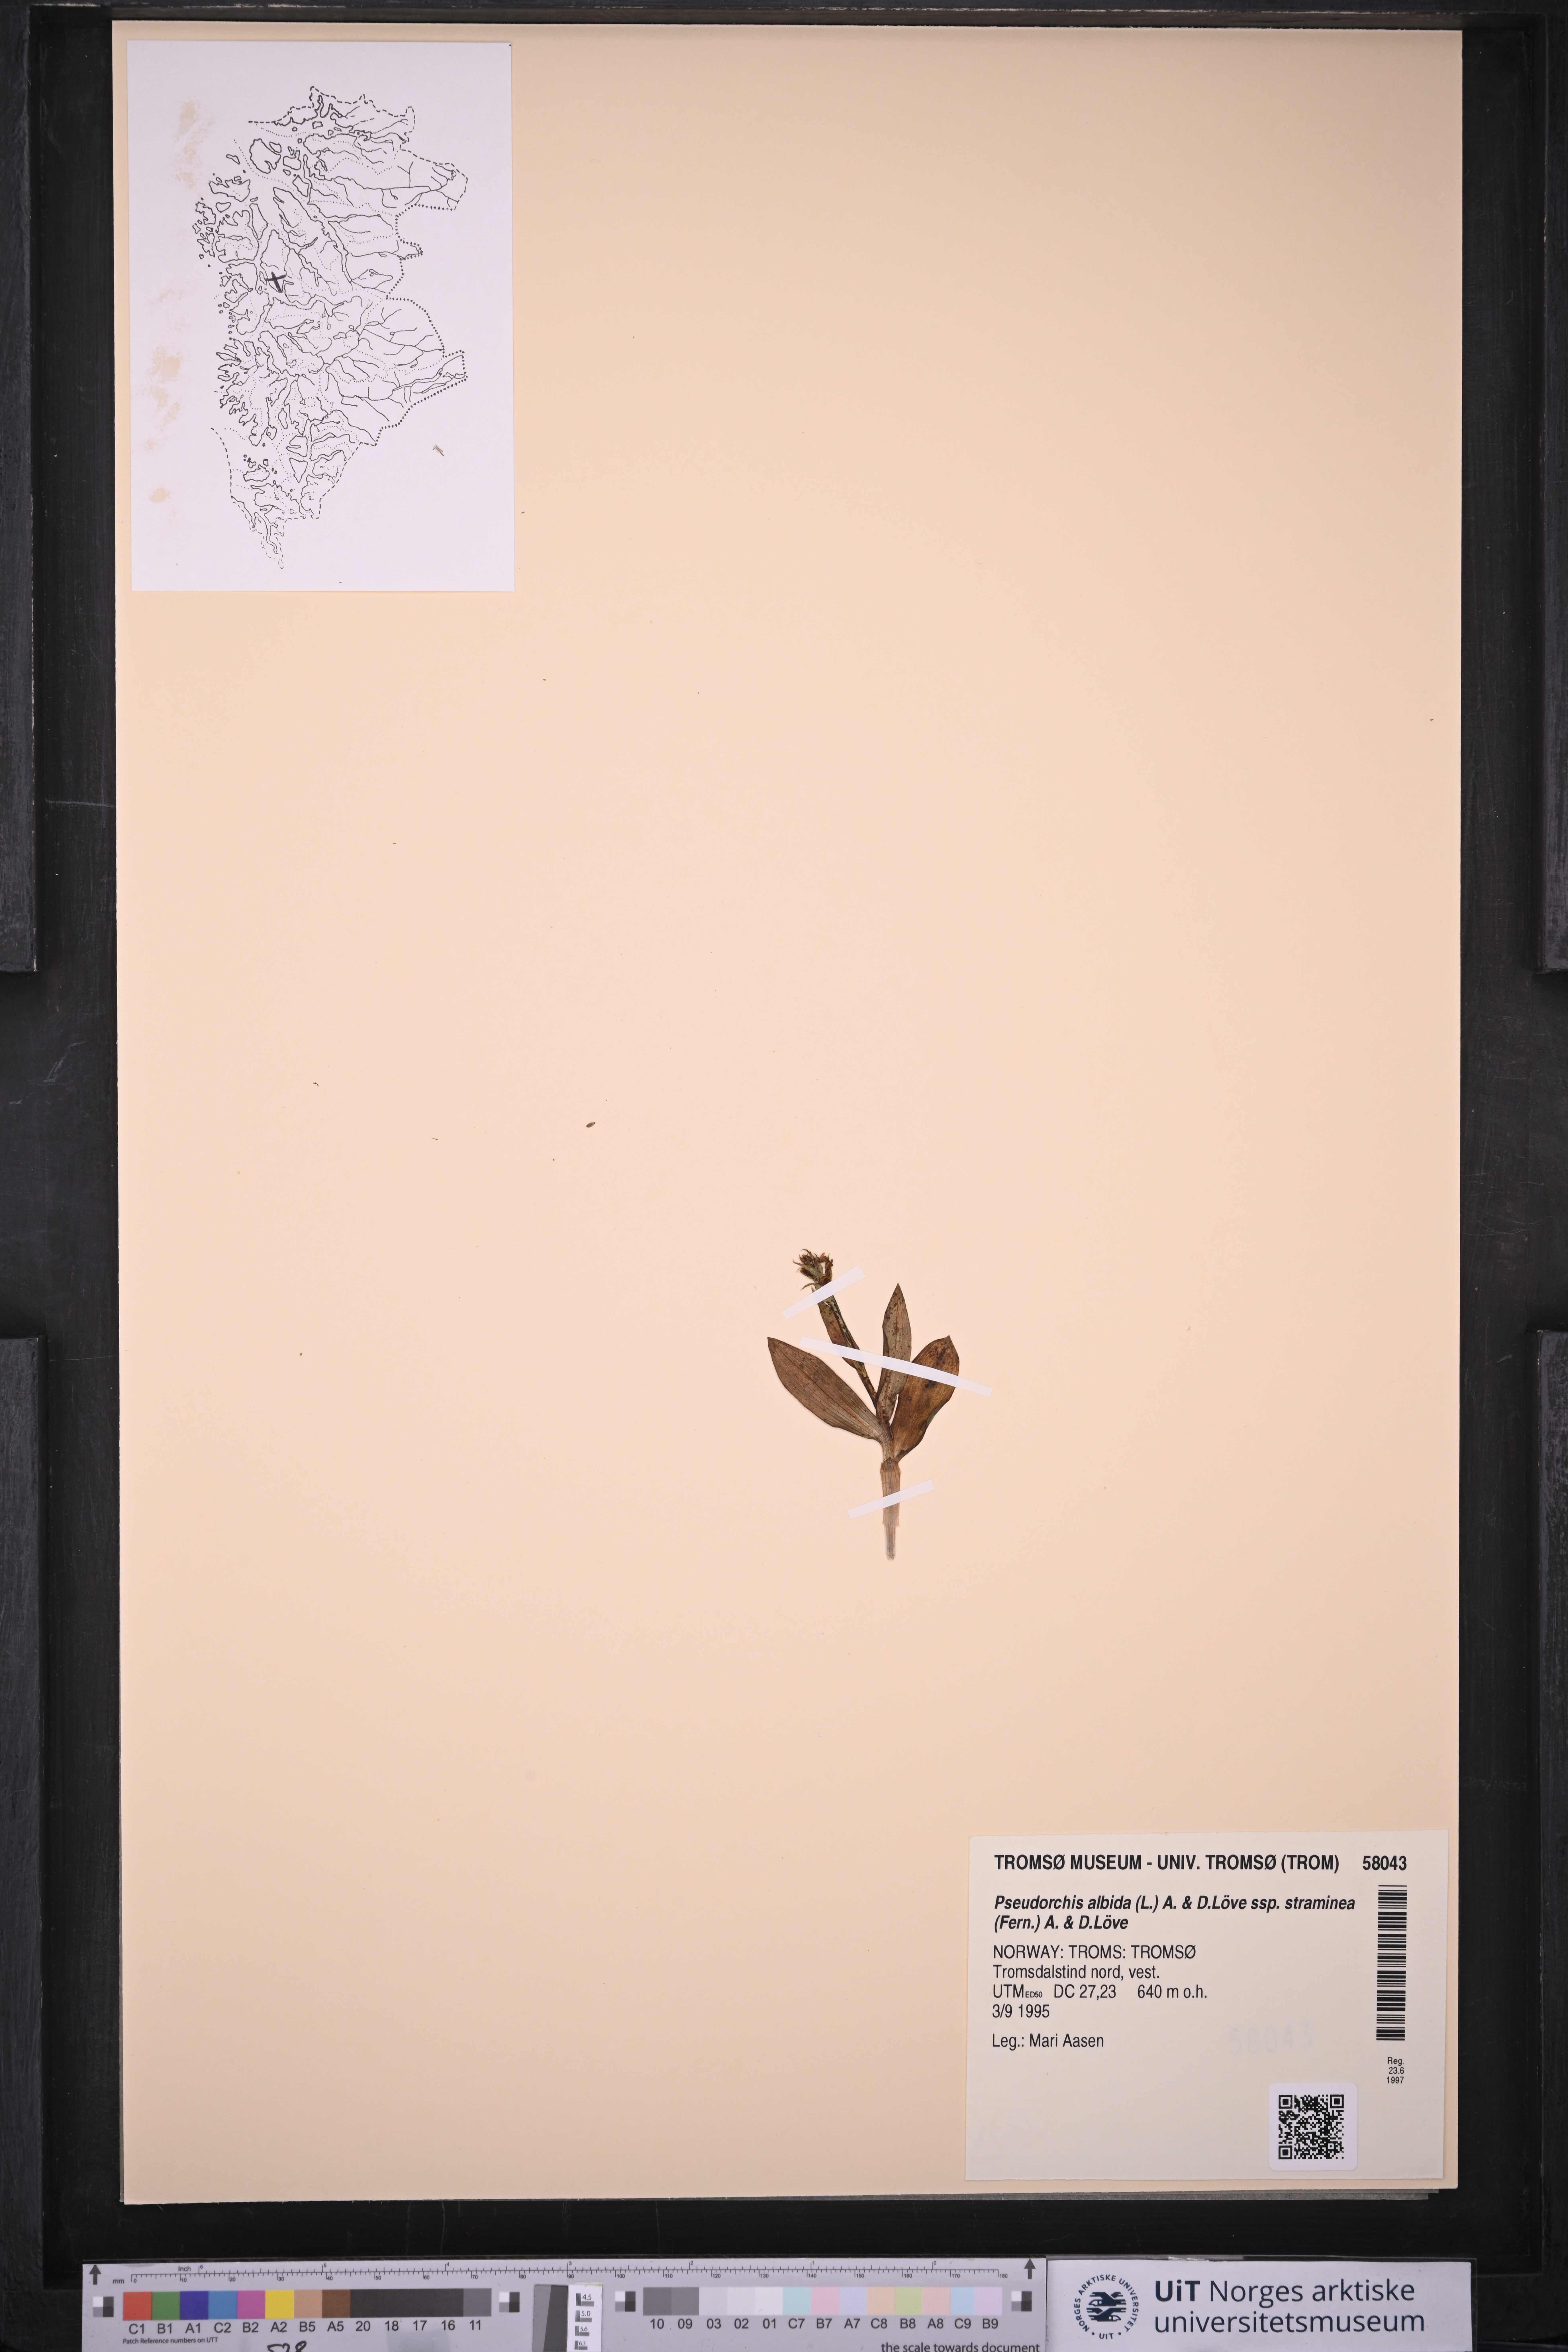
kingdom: Plantae
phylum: Tracheophyta
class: Liliopsida
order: Asparagales
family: Orchidaceae
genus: Pseudorchis
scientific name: Pseudorchis straminea
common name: Vanilla-scented bog orchid
